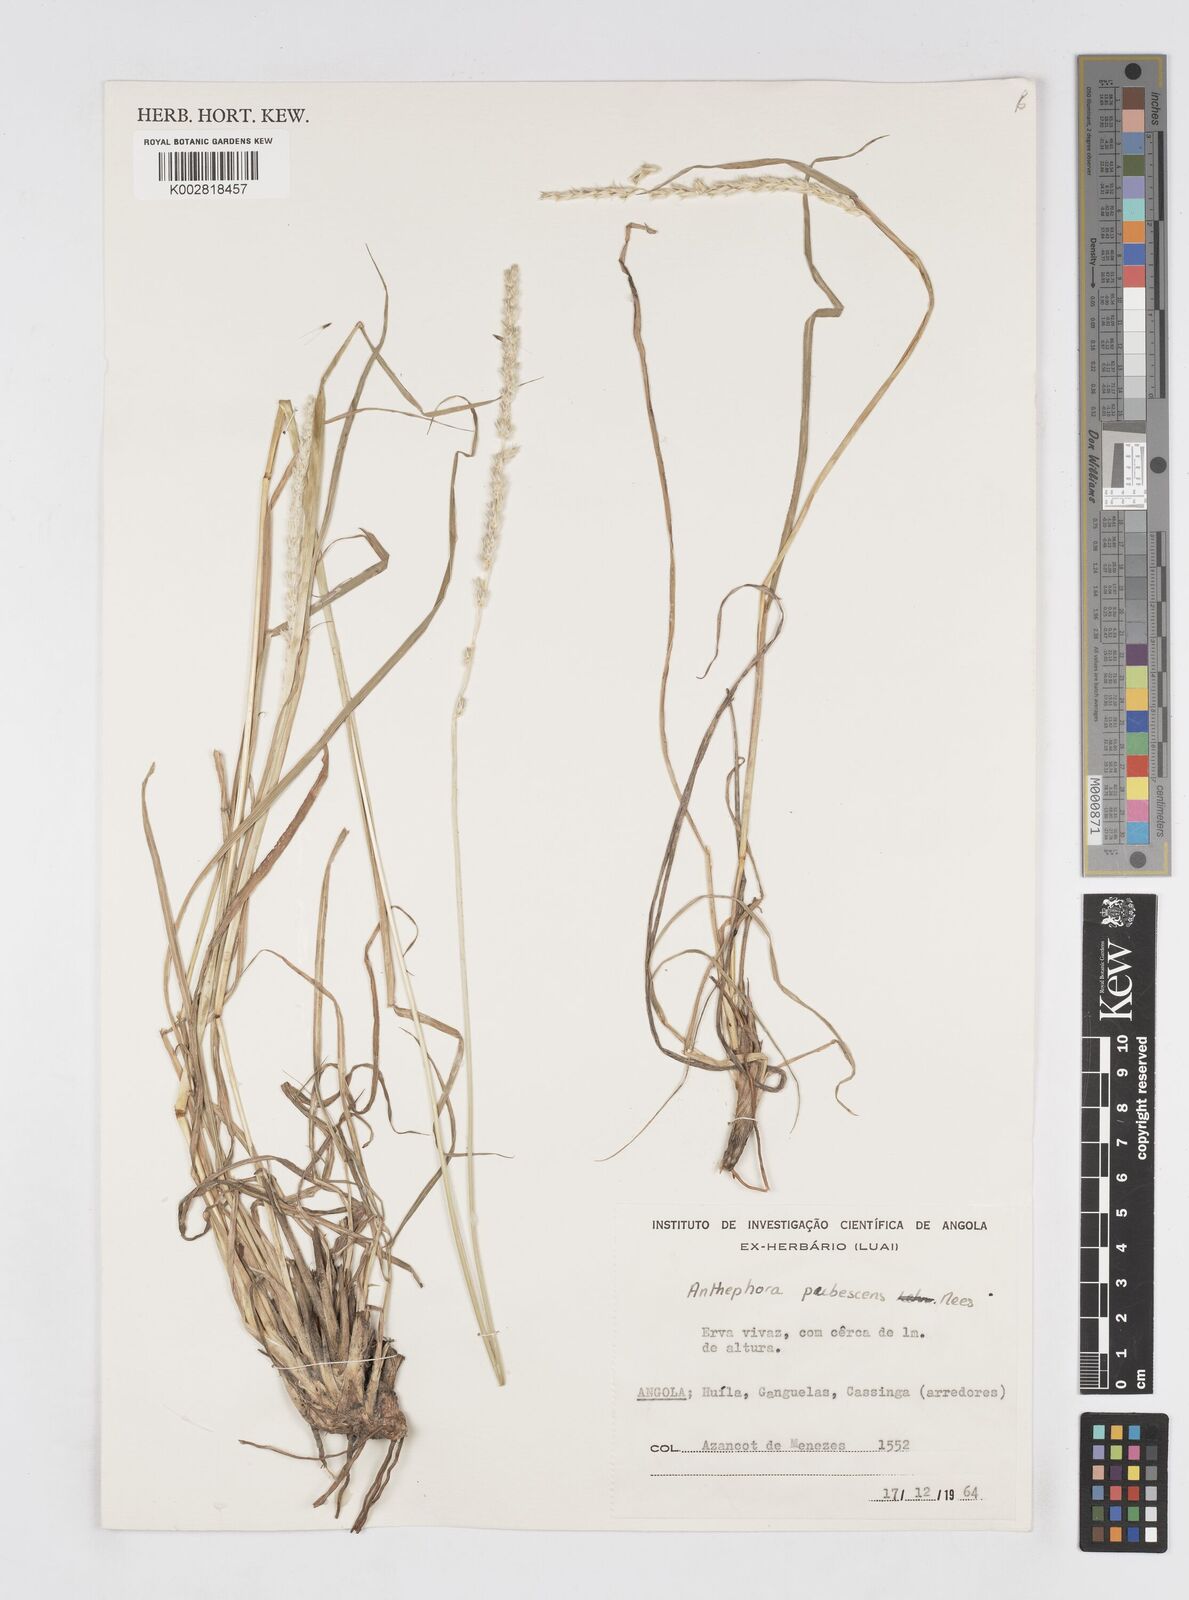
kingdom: Plantae
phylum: Tracheophyta
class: Liliopsida
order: Poales
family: Poaceae
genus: Anthephora
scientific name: Anthephora pubescens
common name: Wool grass
